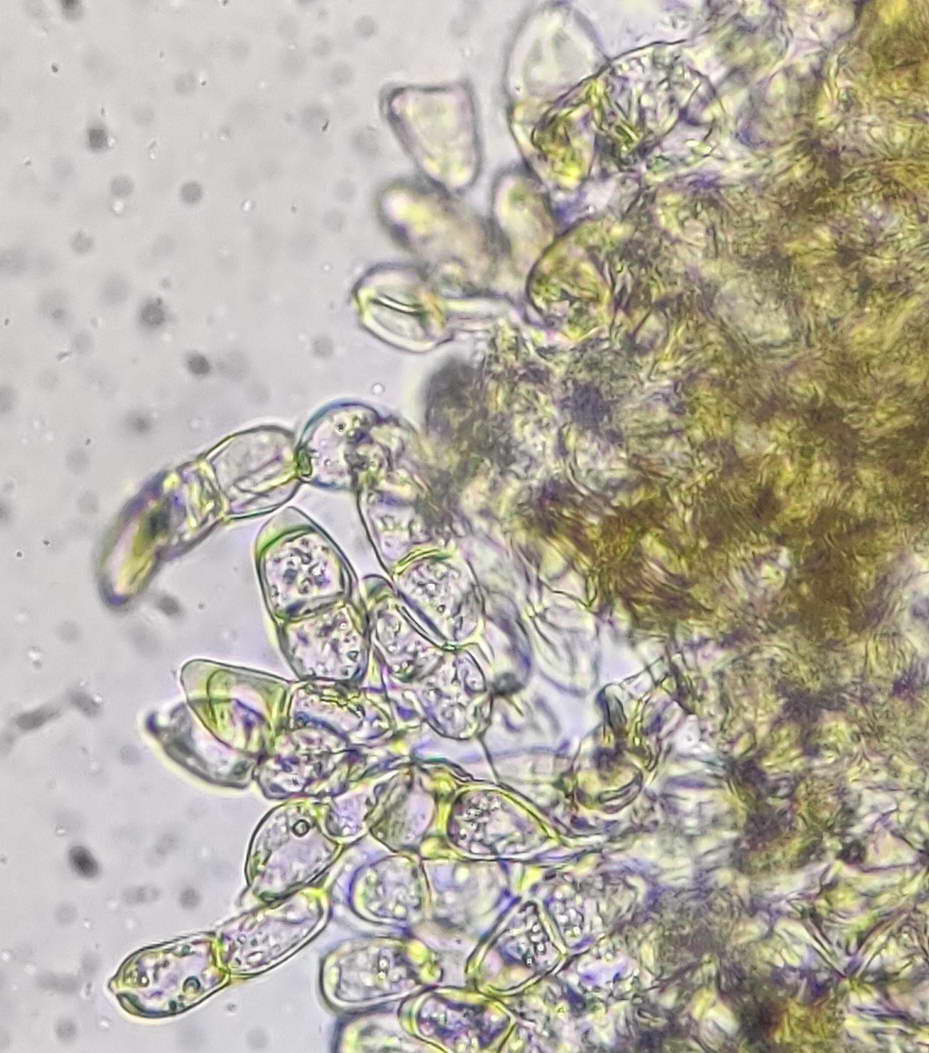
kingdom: Fungi
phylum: Basidiomycota
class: Pucciniomycetes
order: Pucciniales
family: Pucciniaceae
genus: Puccinia
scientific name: Puccinia albulensis
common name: Alpine veronica rust
